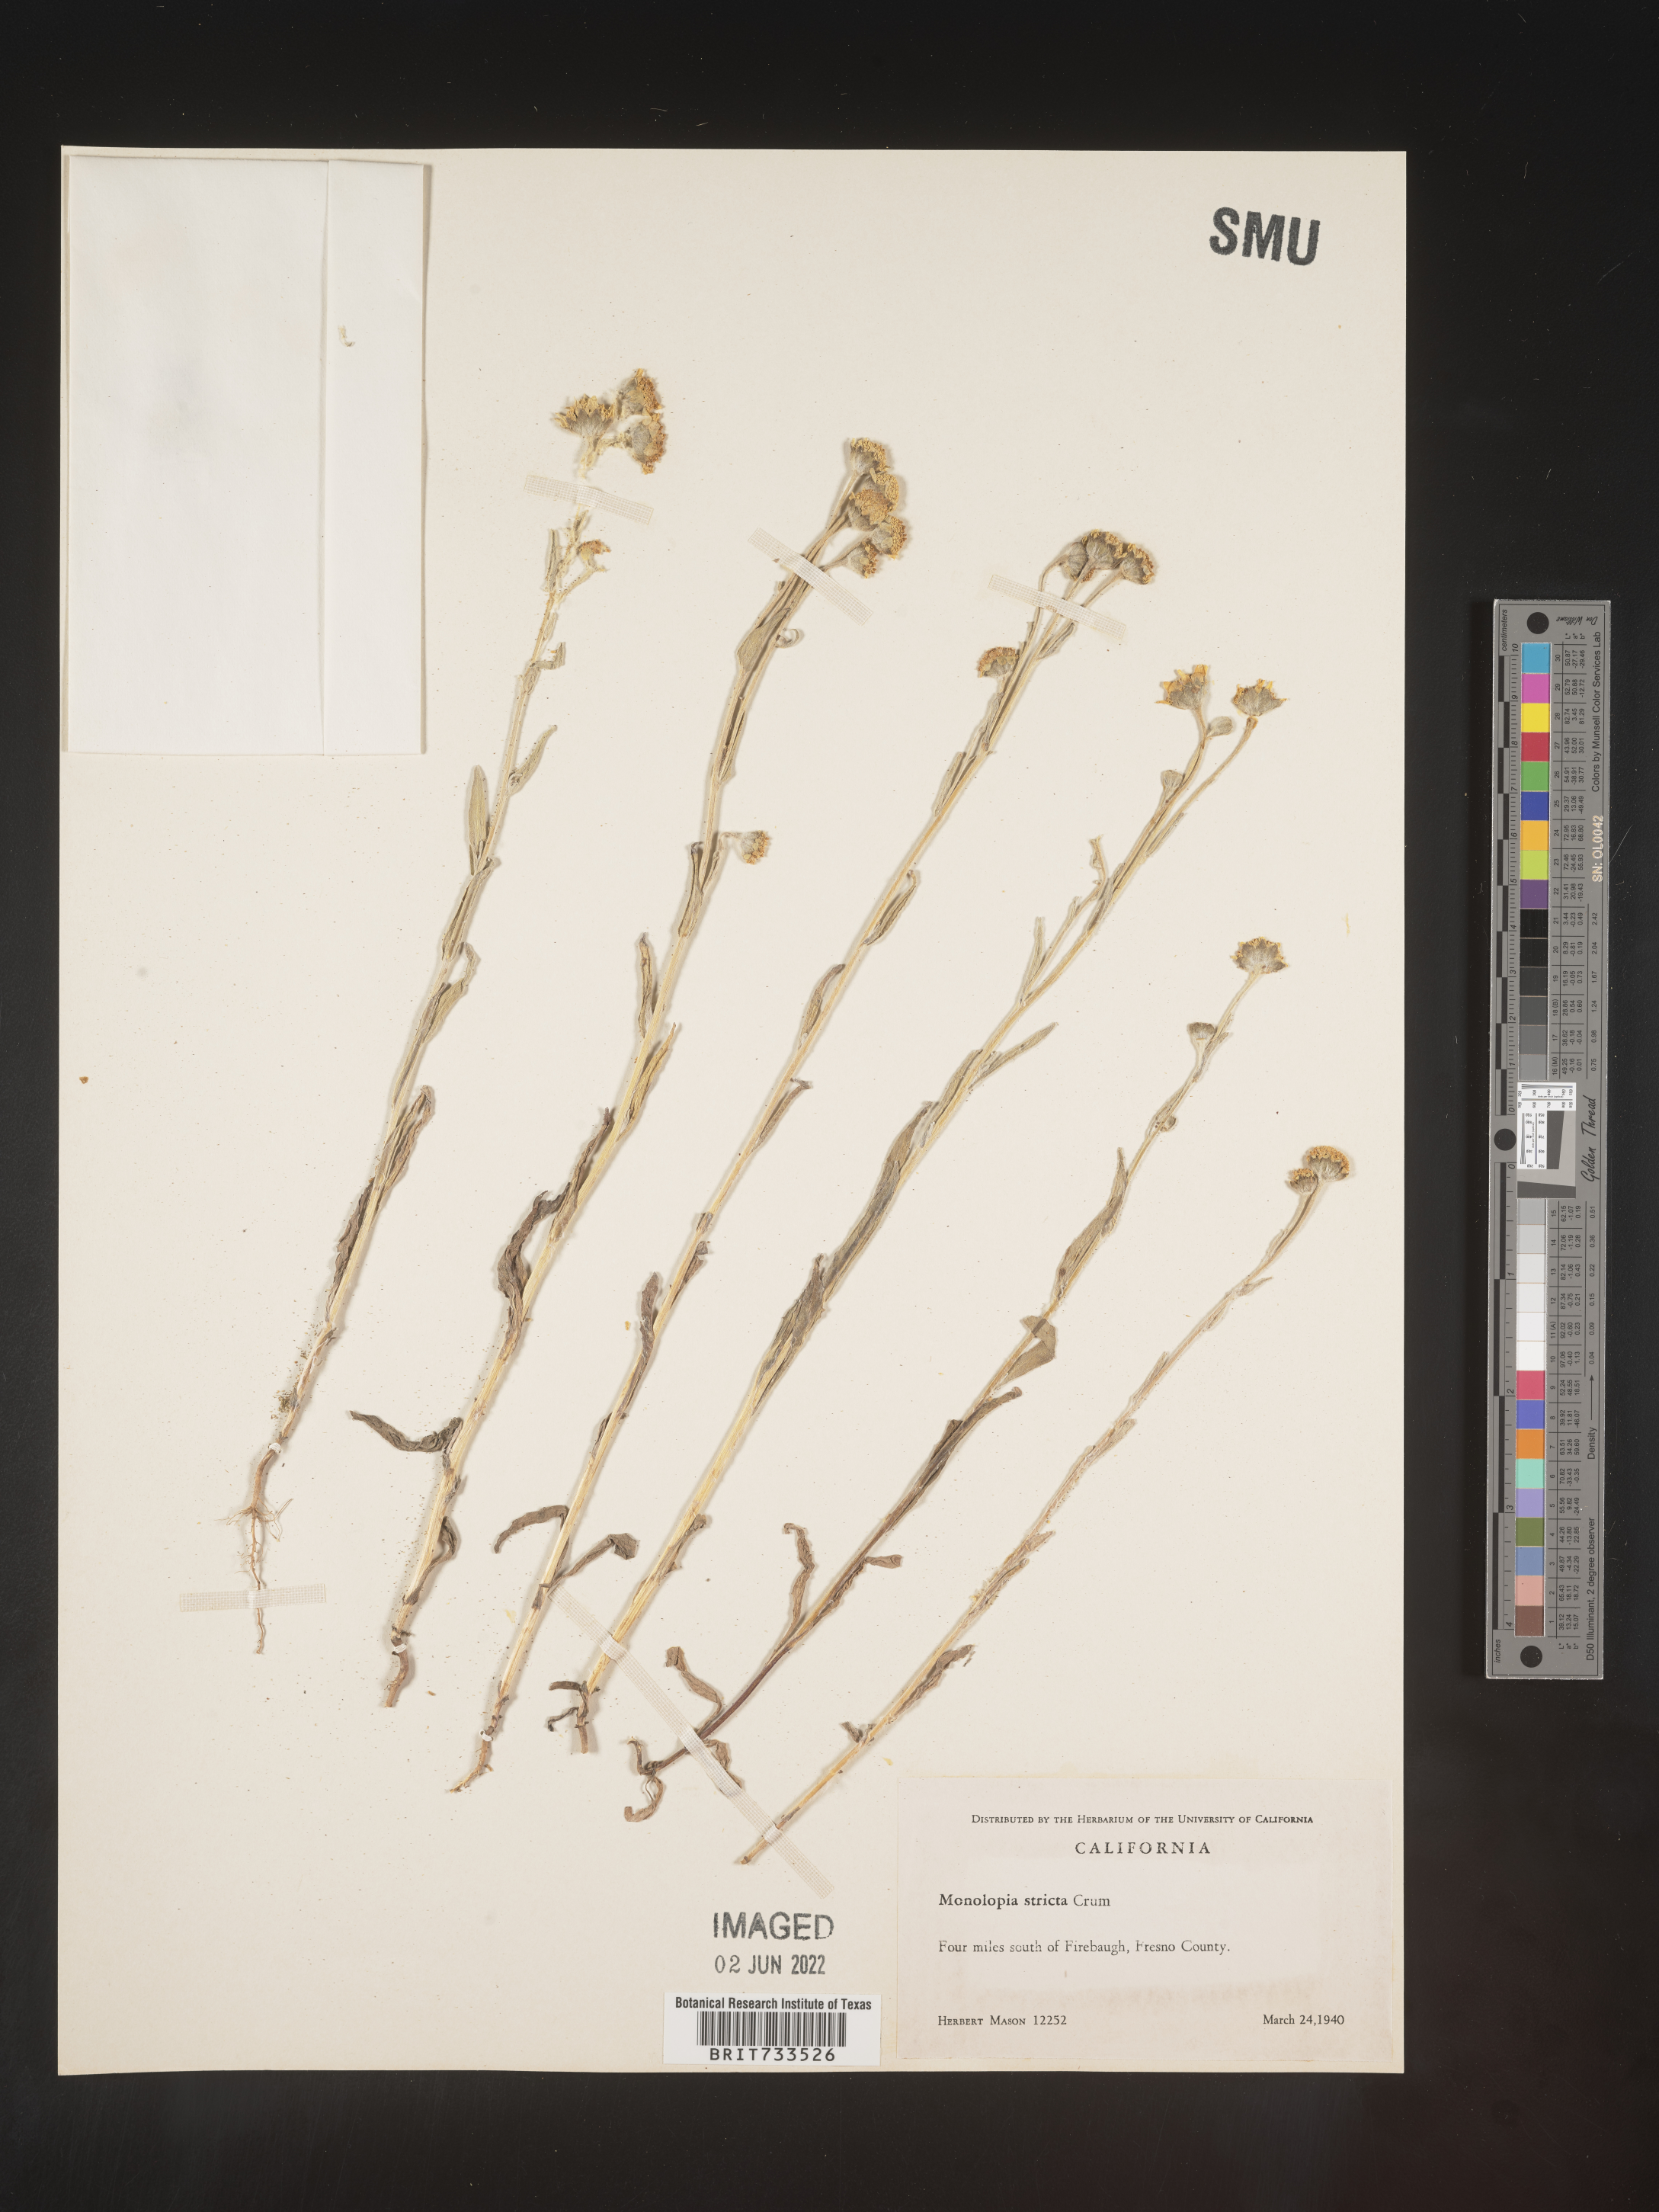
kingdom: Plantae
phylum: Tracheophyta
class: Magnoliopsida
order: Asterales
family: Asteraceae
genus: Monolopia
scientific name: Monolopia stricta
